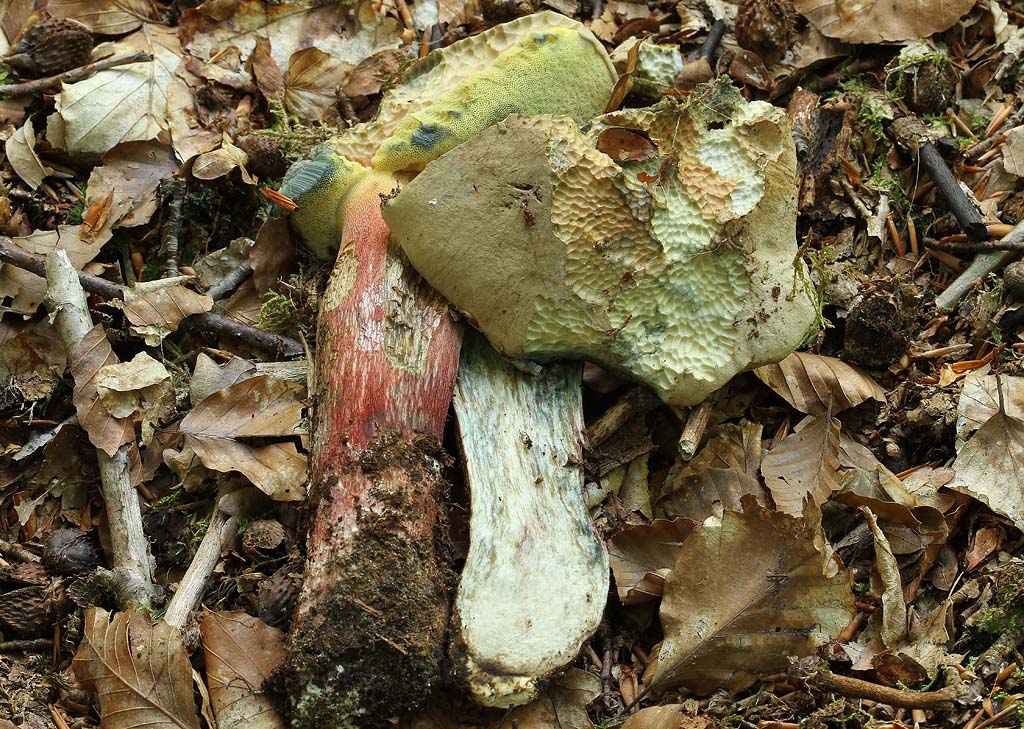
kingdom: Fungi
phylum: Basidiomycota
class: Agaricomycetes
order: Boletales
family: Boletaceae
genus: Caloboletus
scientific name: Caloboletus calopus
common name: skønfodet rørhat
